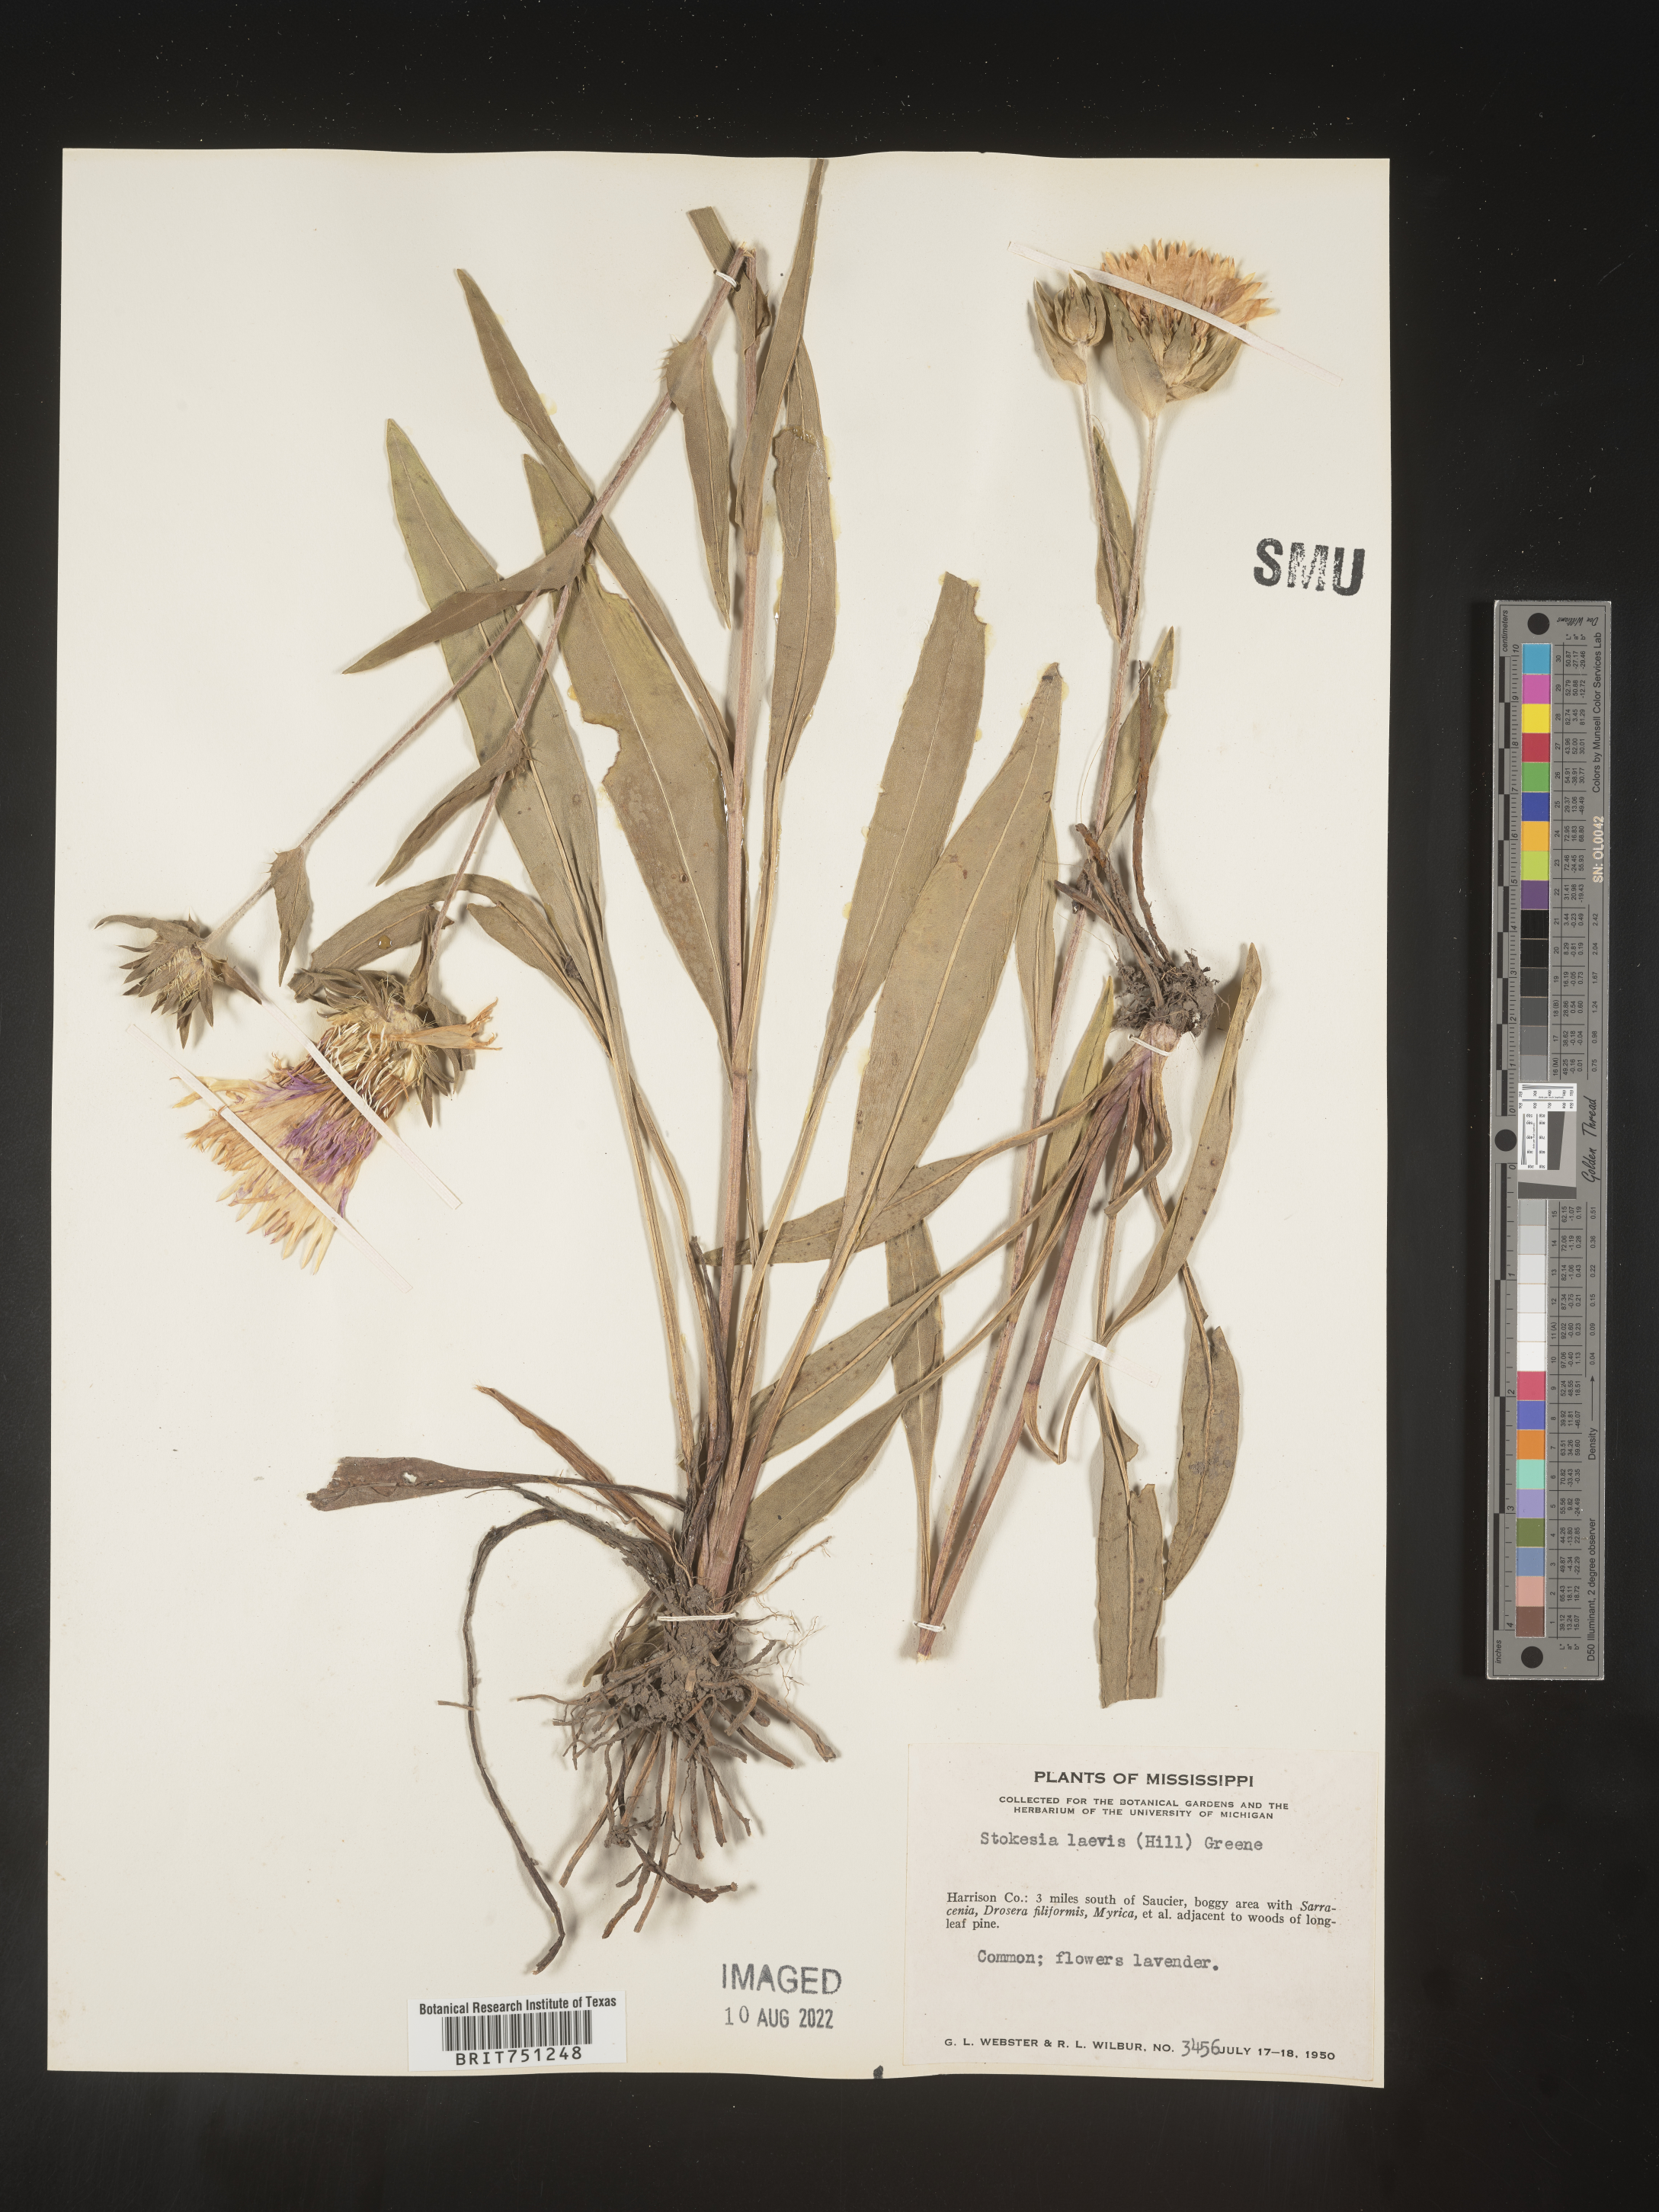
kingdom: Plantae
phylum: Tracheophyta
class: Magnoliopsida
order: Asterales
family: Asteraceae
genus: Stokesia
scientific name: Stokesia
